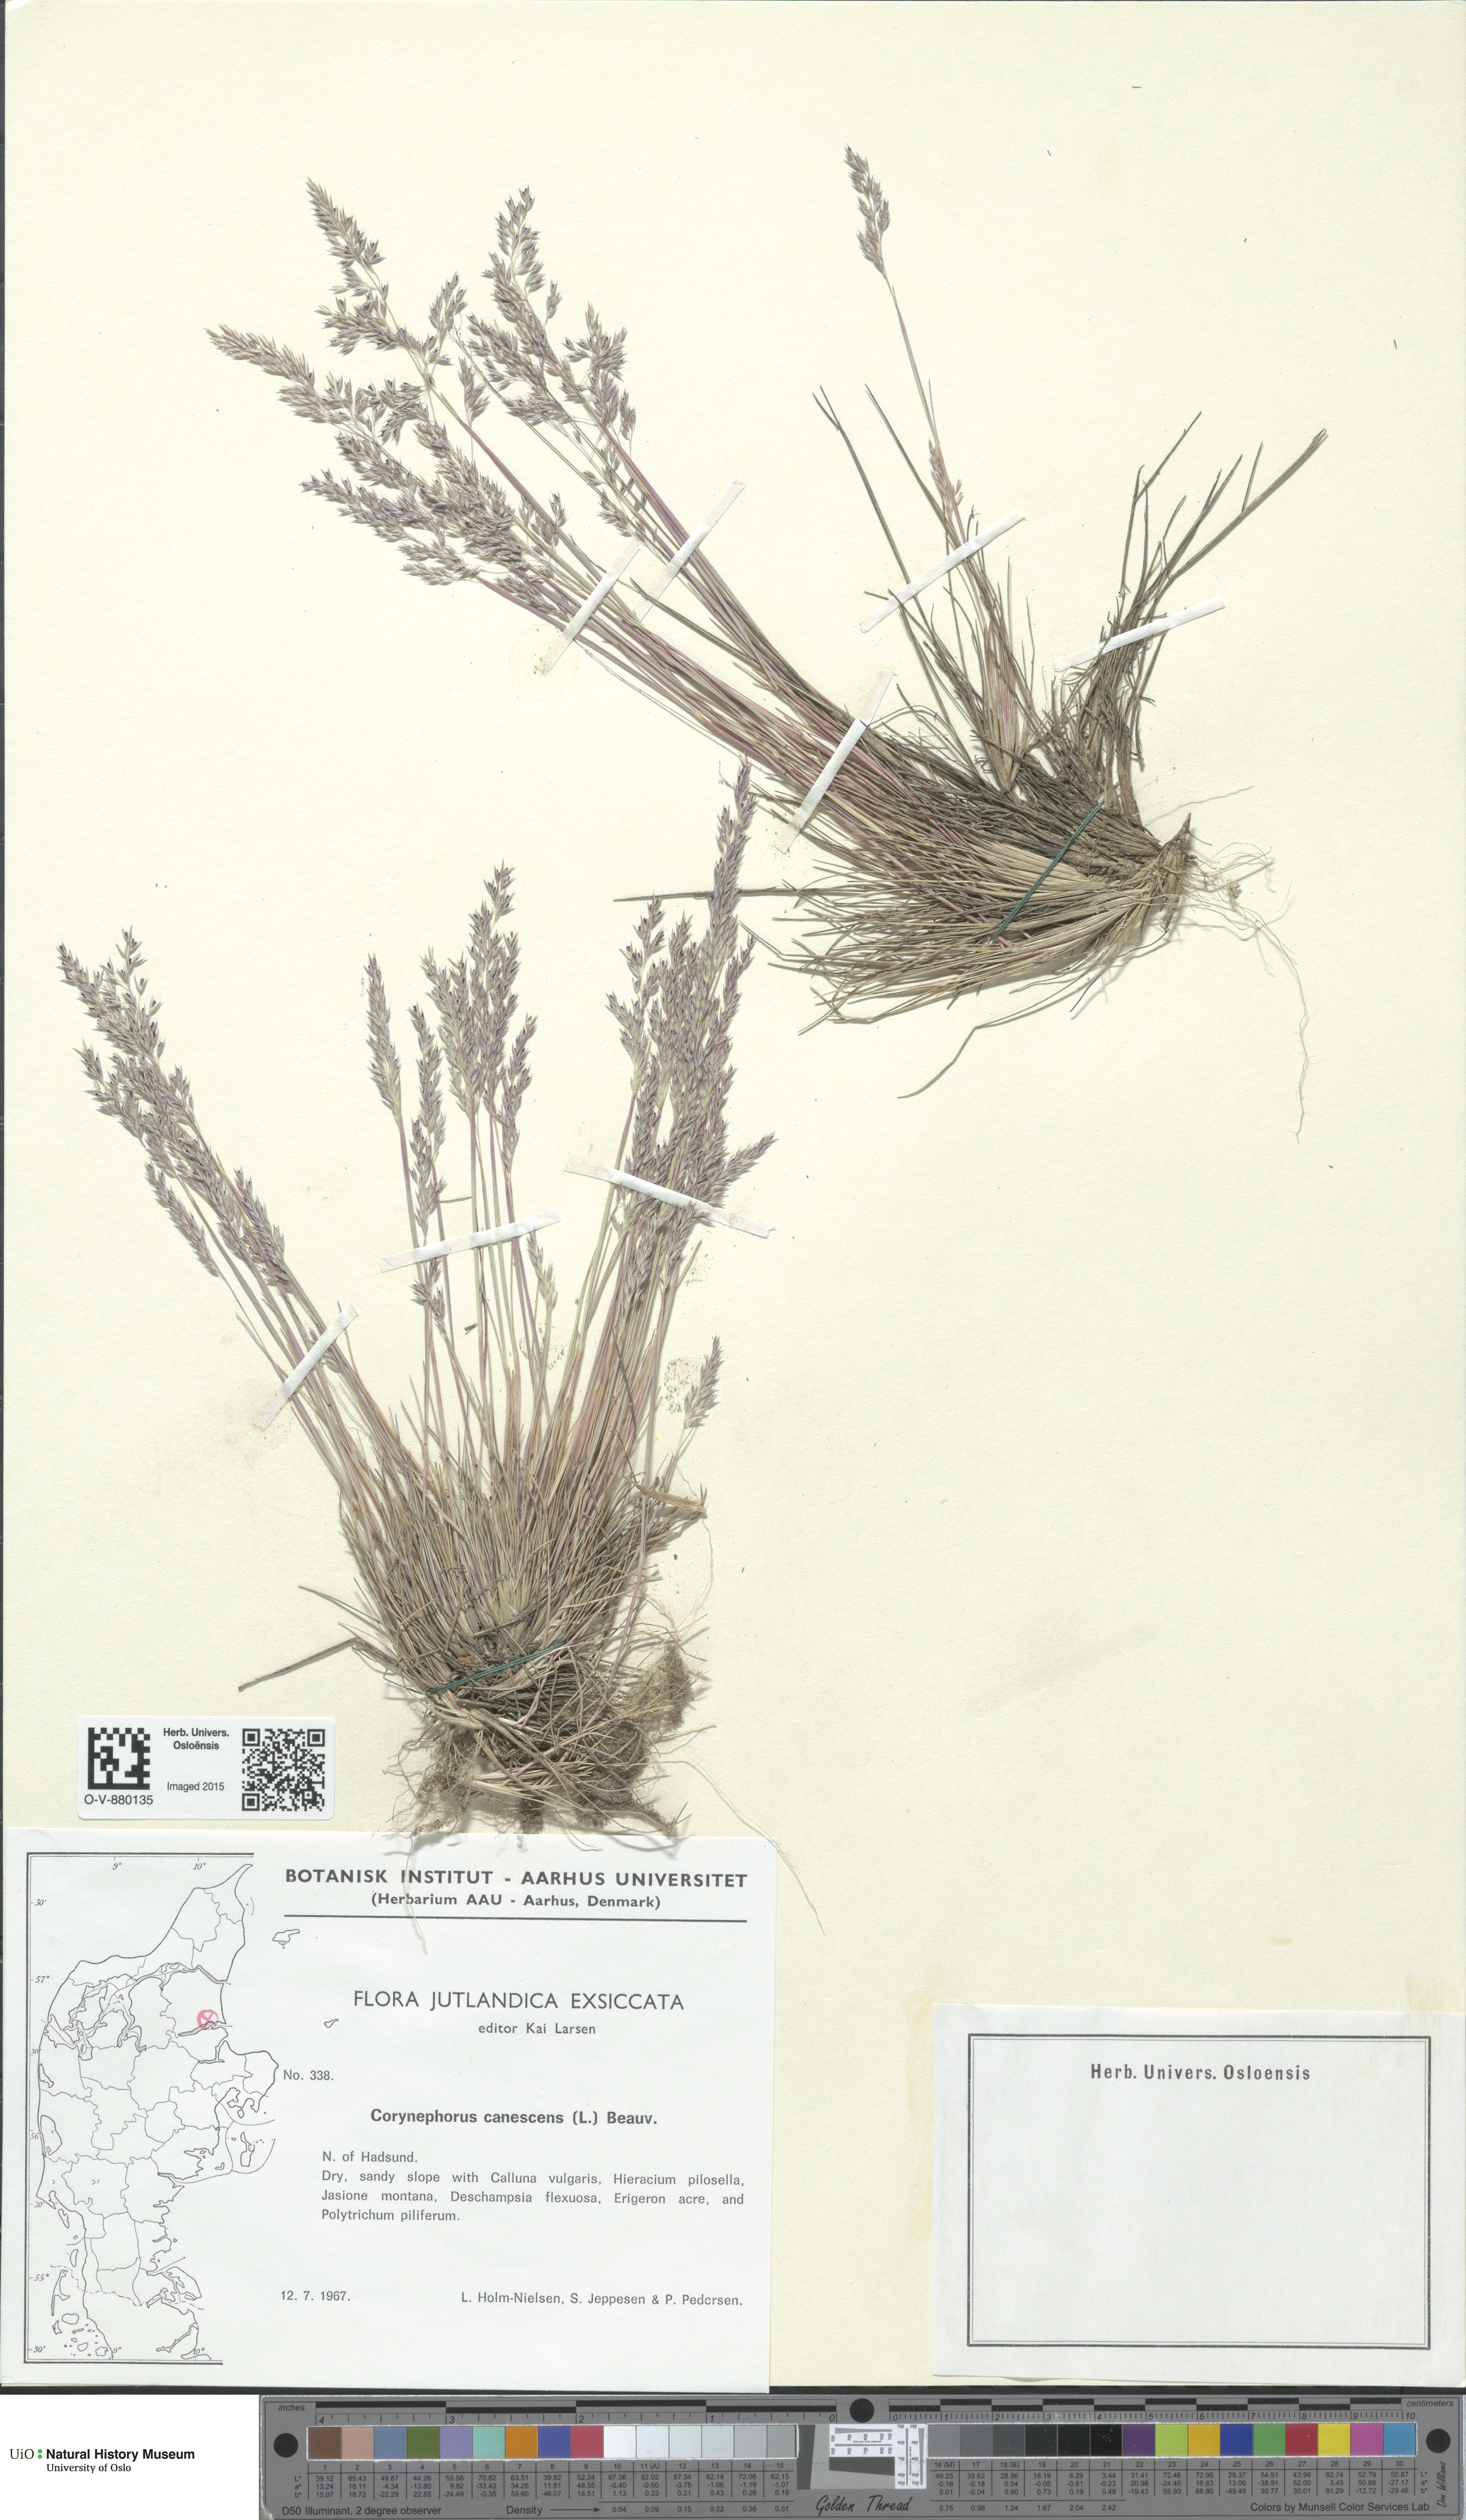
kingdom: Plantae
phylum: Tracheophyta
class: Liliopsida
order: Poales
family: Poaceae
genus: Corynephorus
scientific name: Corynephorus canescens
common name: Grey hair-grass
